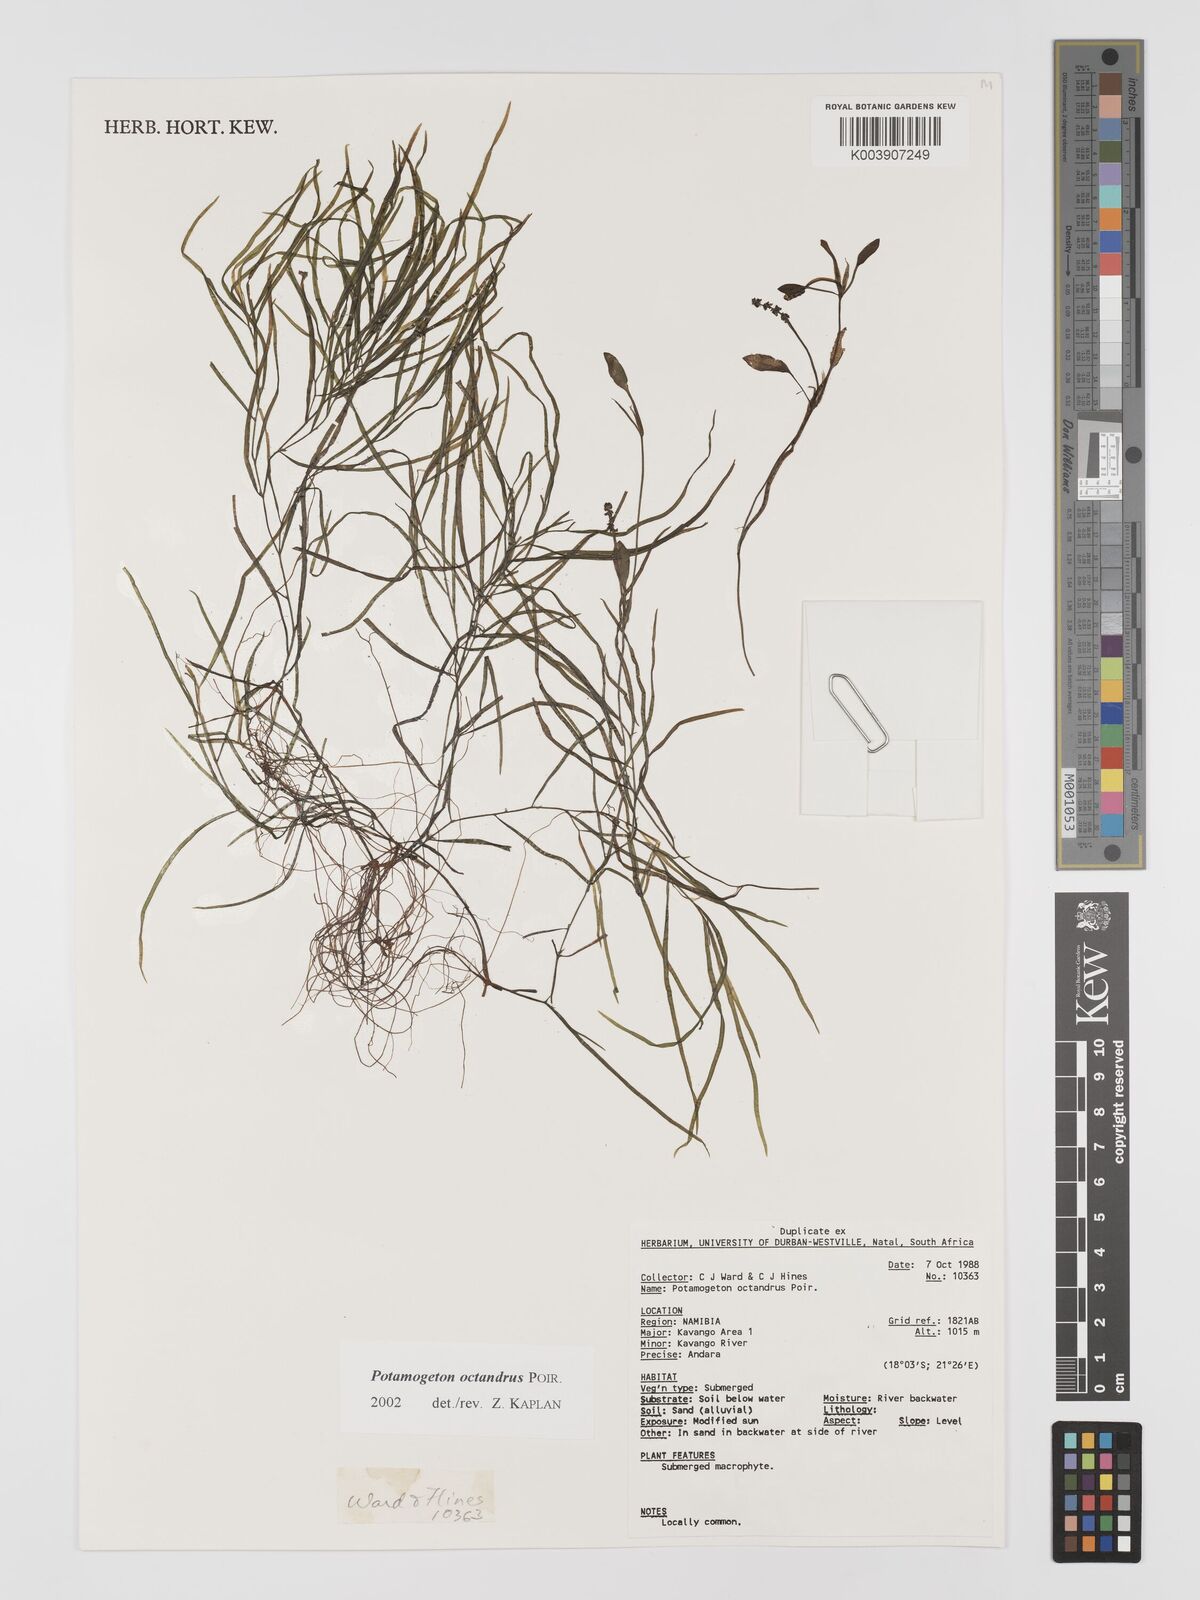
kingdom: Plantae
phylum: Tracheophyta
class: Liliopsida
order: Alismatales
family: Potamogetonaceae
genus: Potamogeton
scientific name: Potamogeton octandrus
